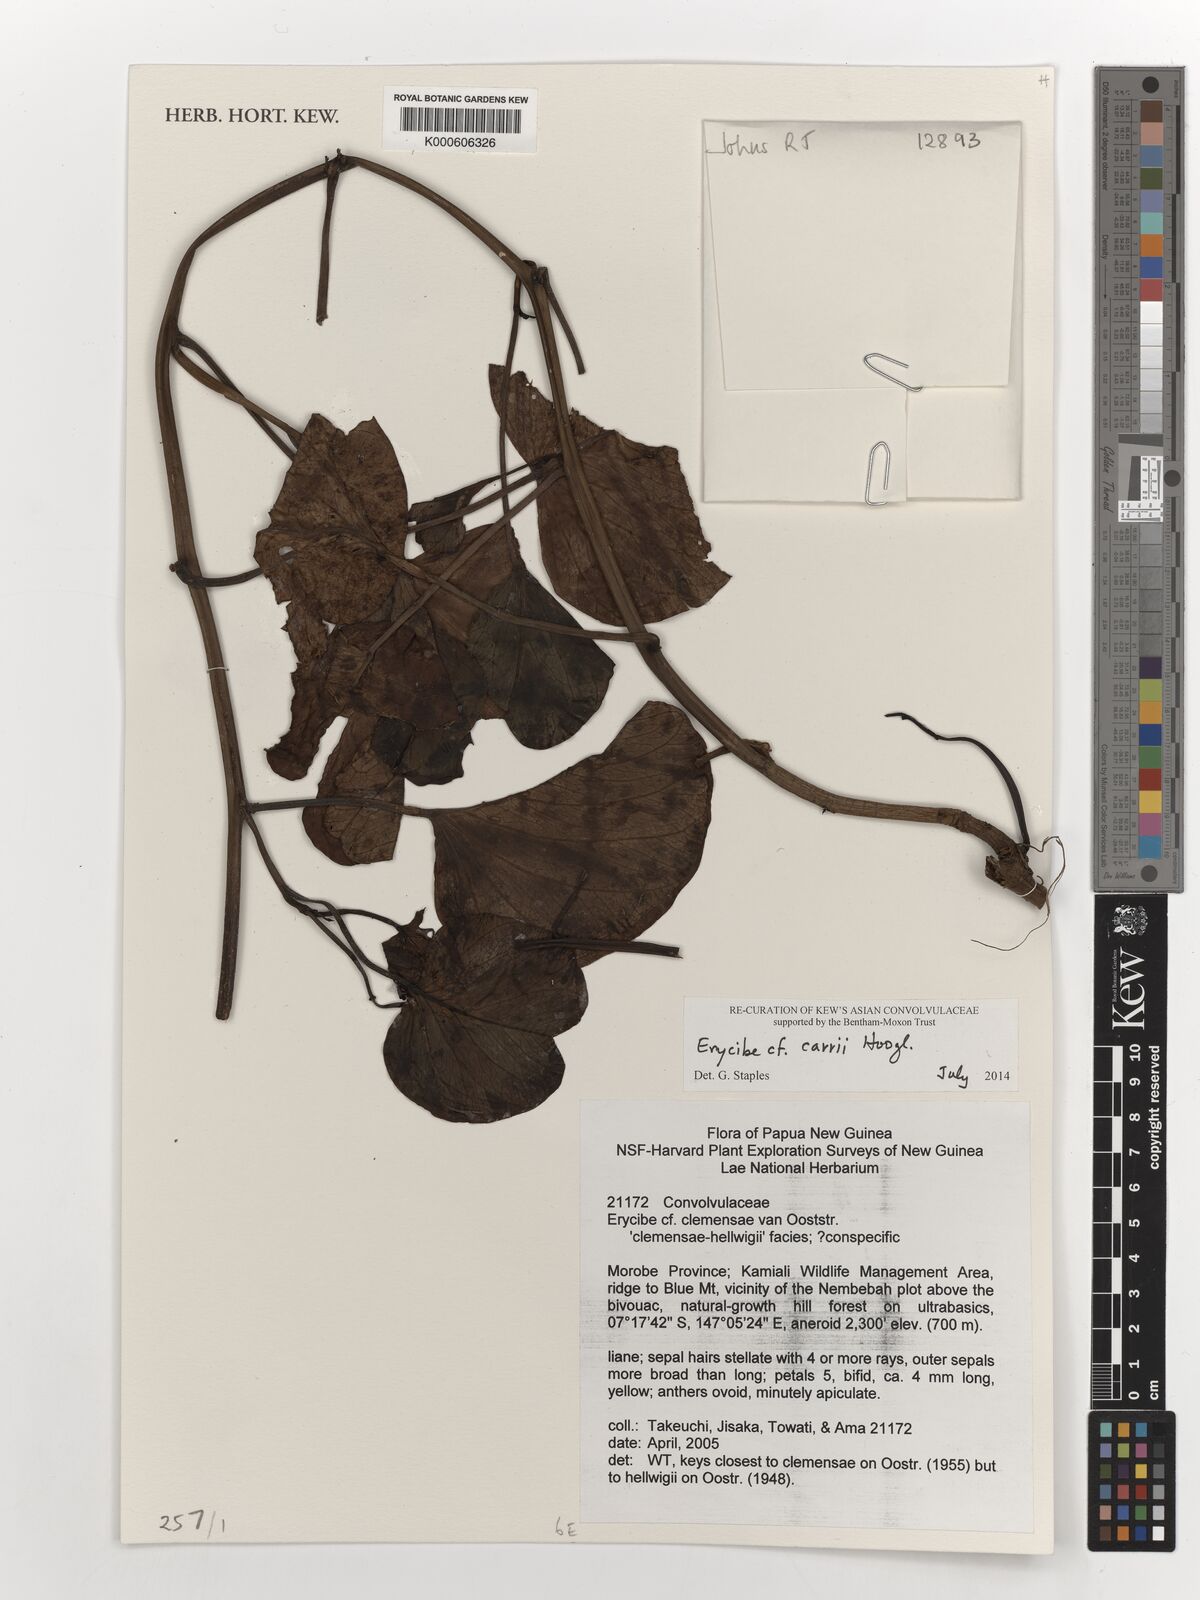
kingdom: Plantae
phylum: Tracheophyta
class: Magnoliopsida
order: Solanales
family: Convolvulaceae
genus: Erycibe
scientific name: Erycibe
